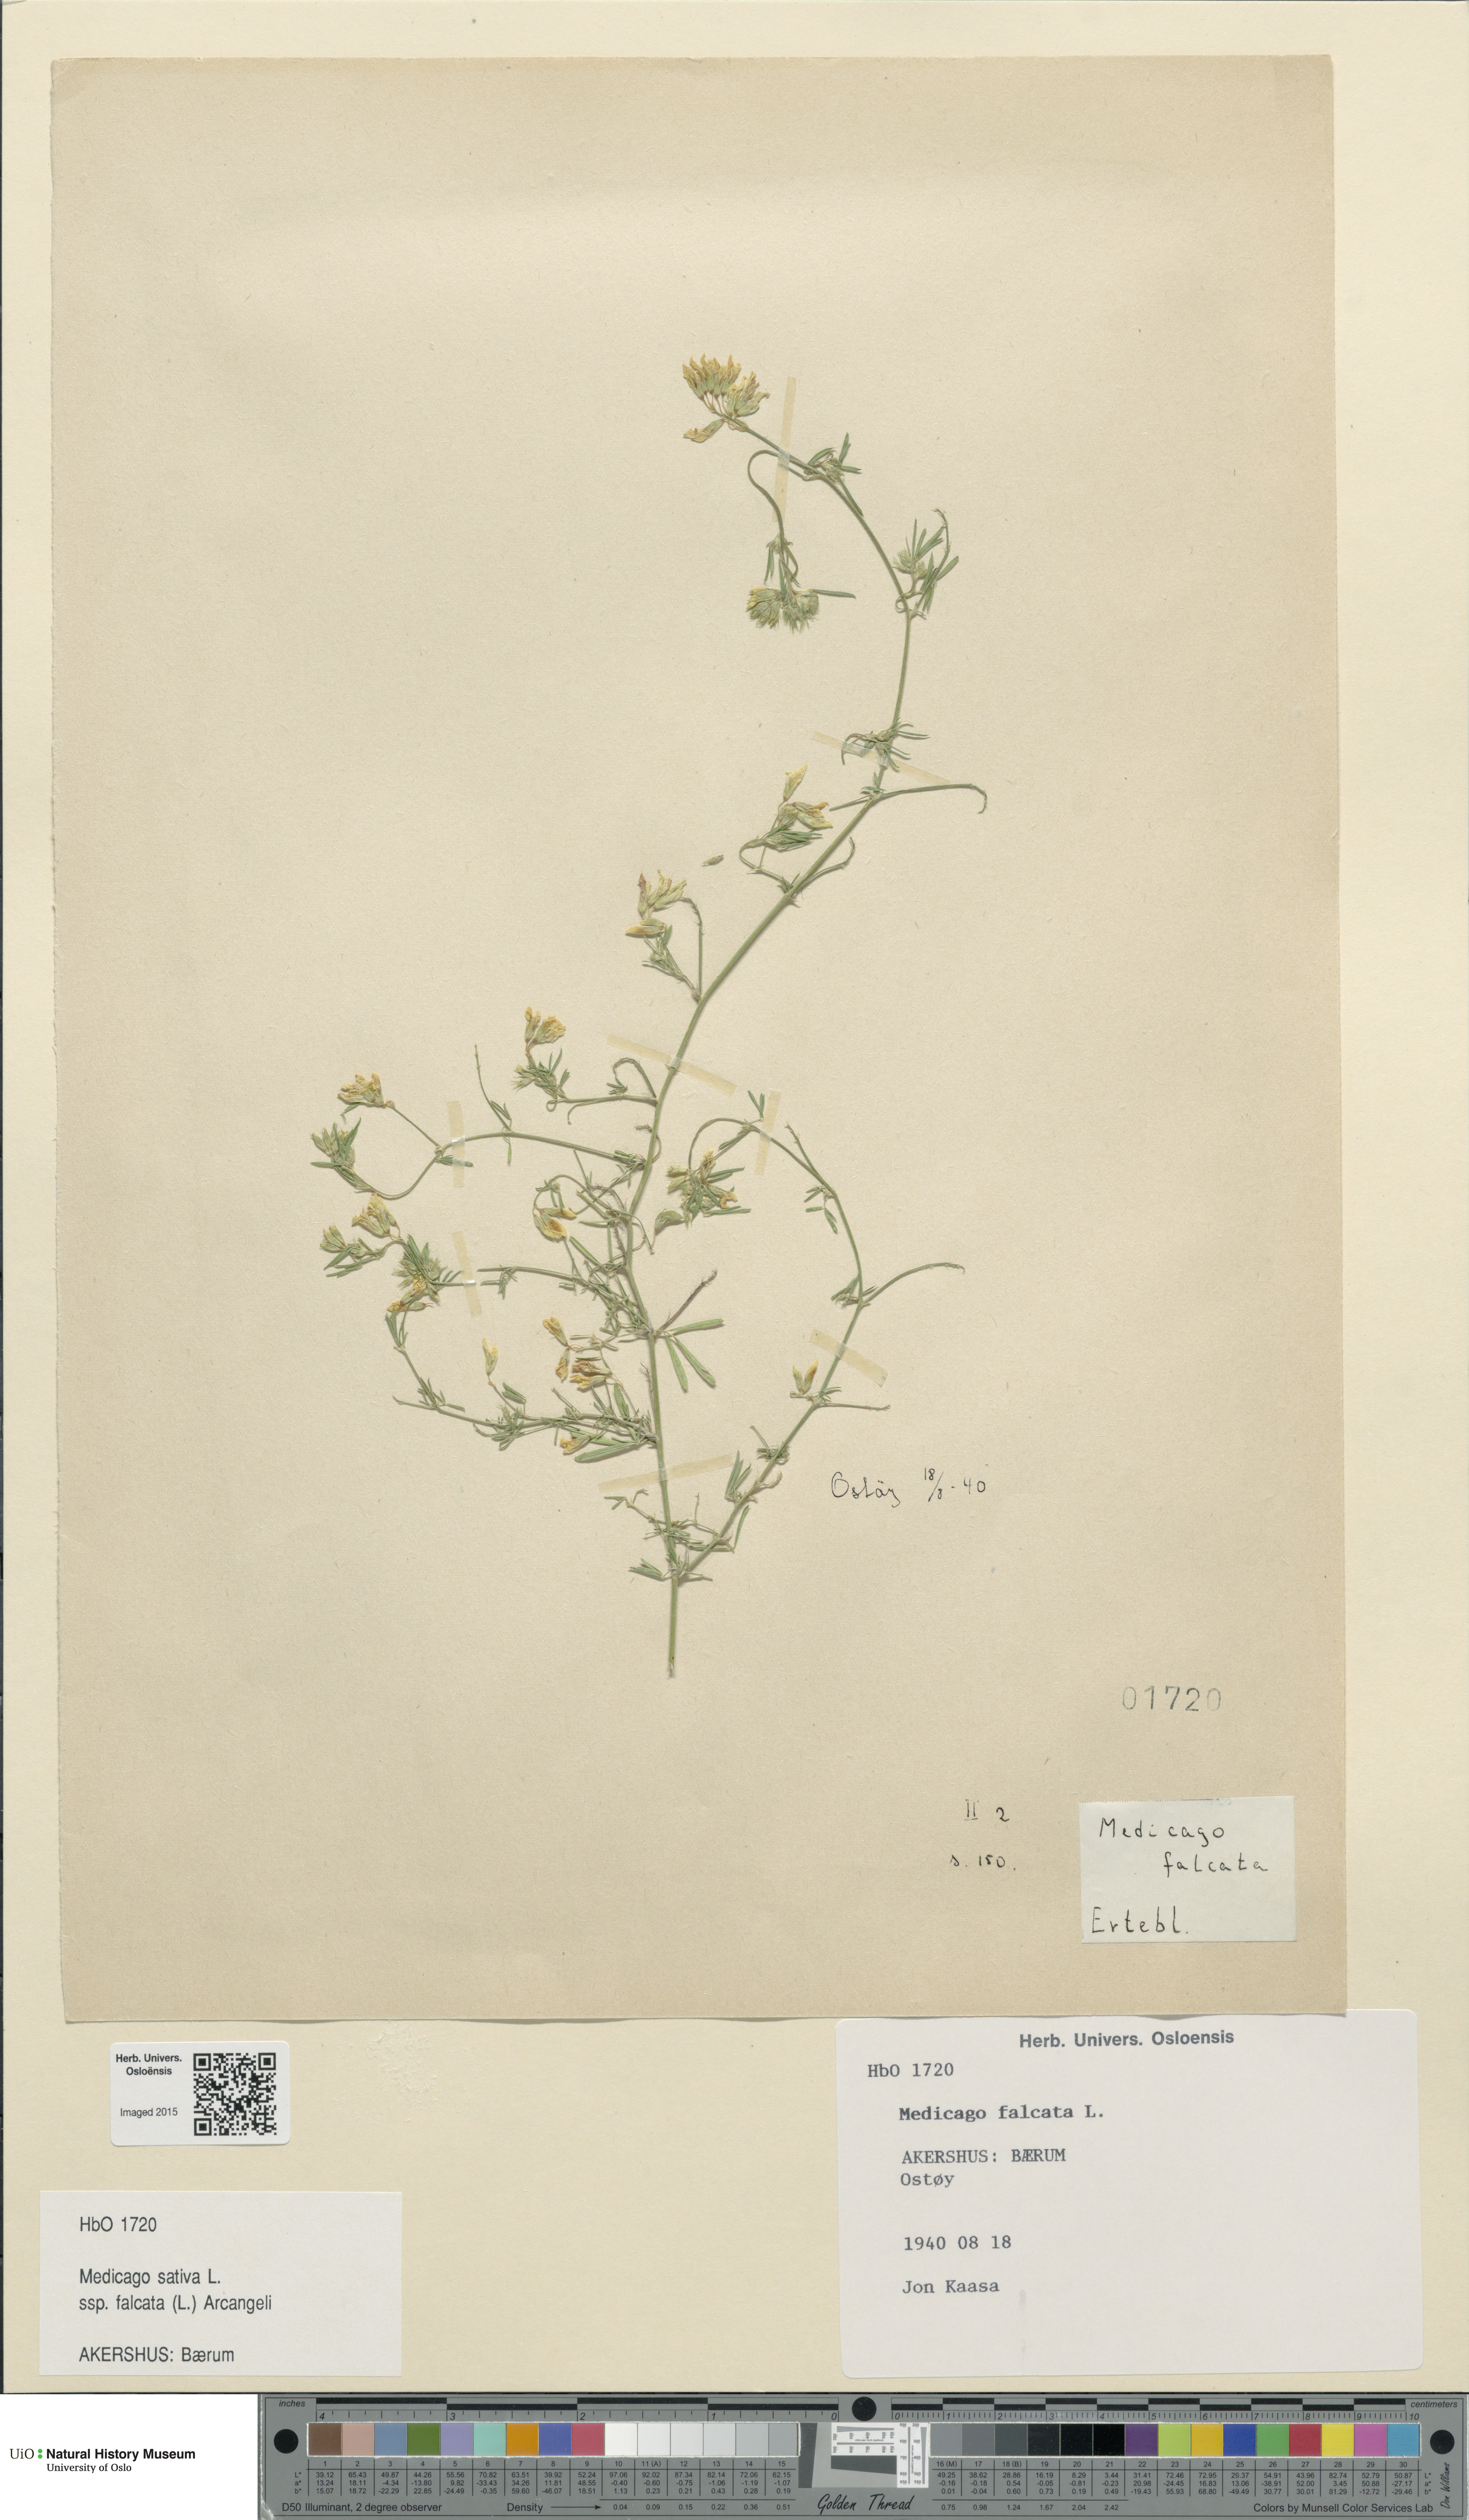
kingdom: Plantae
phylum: Tracheophyta
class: Magnoliopsida
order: Fabales
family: Fabaceae
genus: Medicago
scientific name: Medicago falcata
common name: Sickle medick
